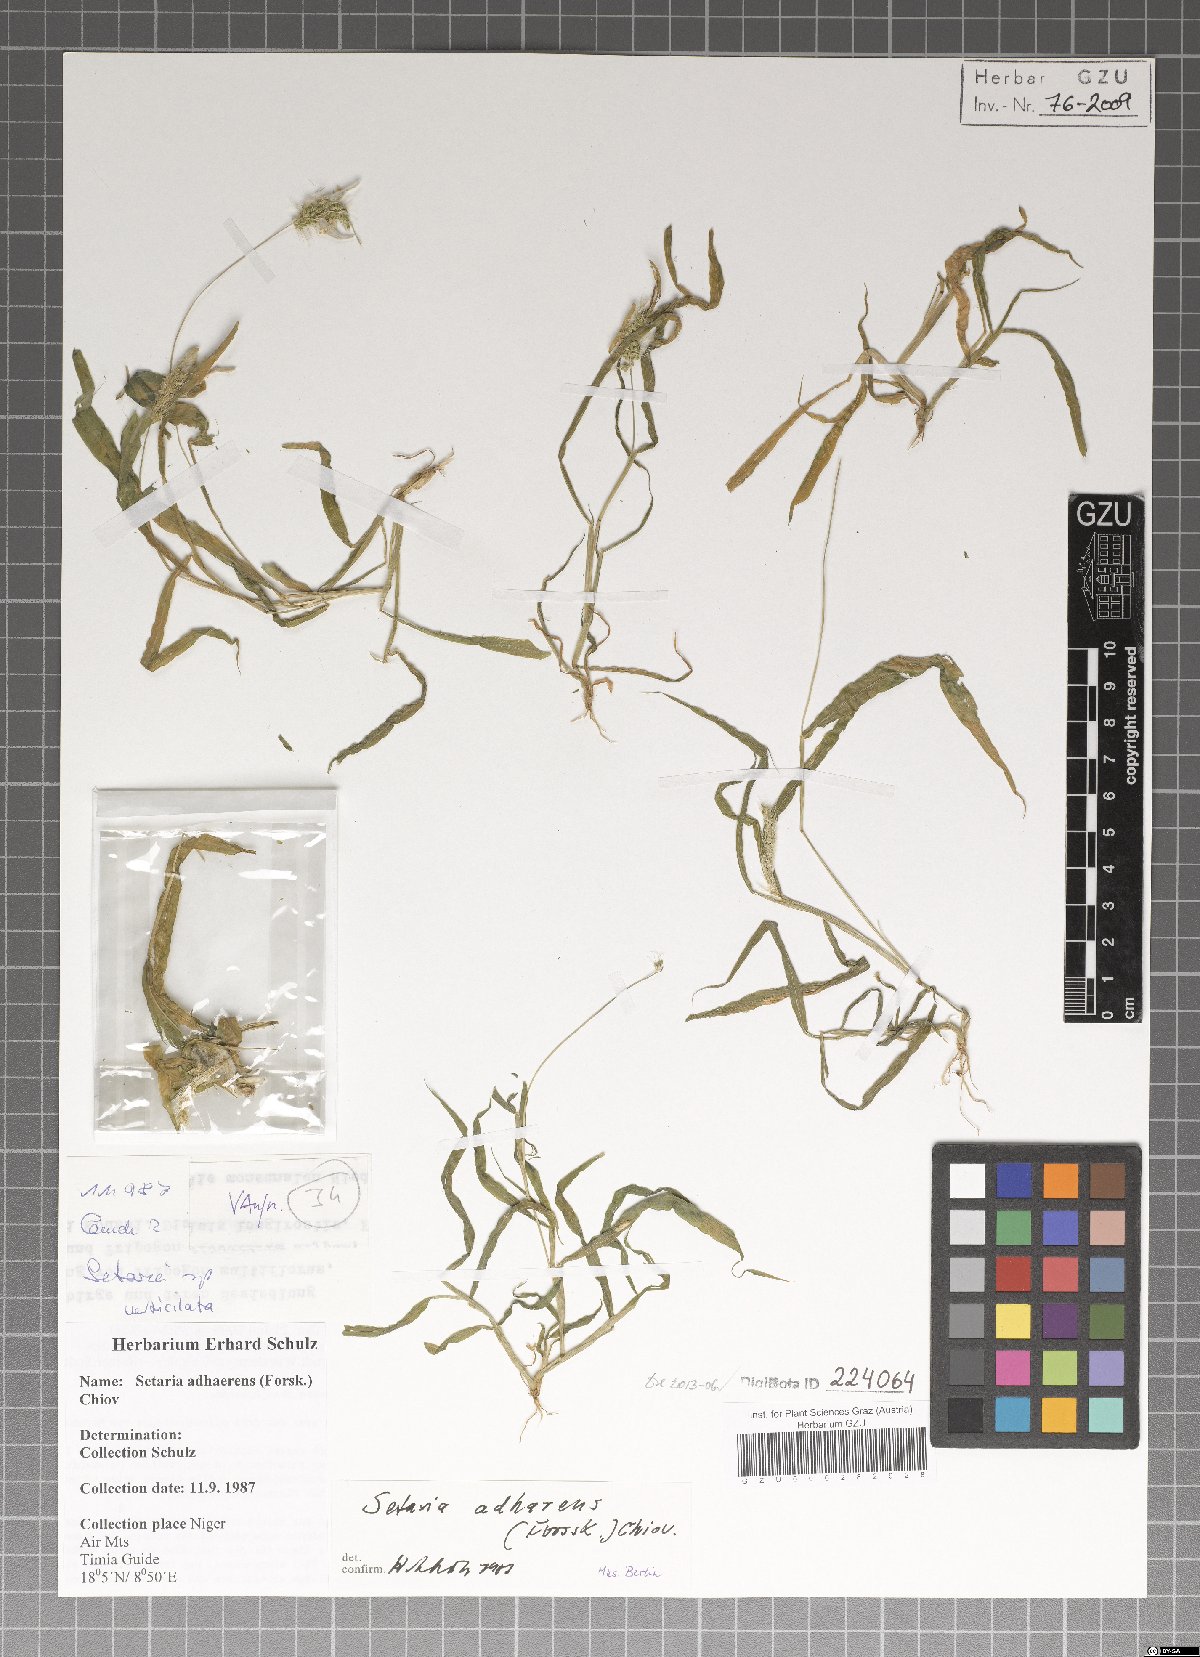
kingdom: Plantae
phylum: Tracheophyta
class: Liliopsida
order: Poales
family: Poaceae
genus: Setaria
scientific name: Setaria adhaerens
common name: Adherent bristle-grass
